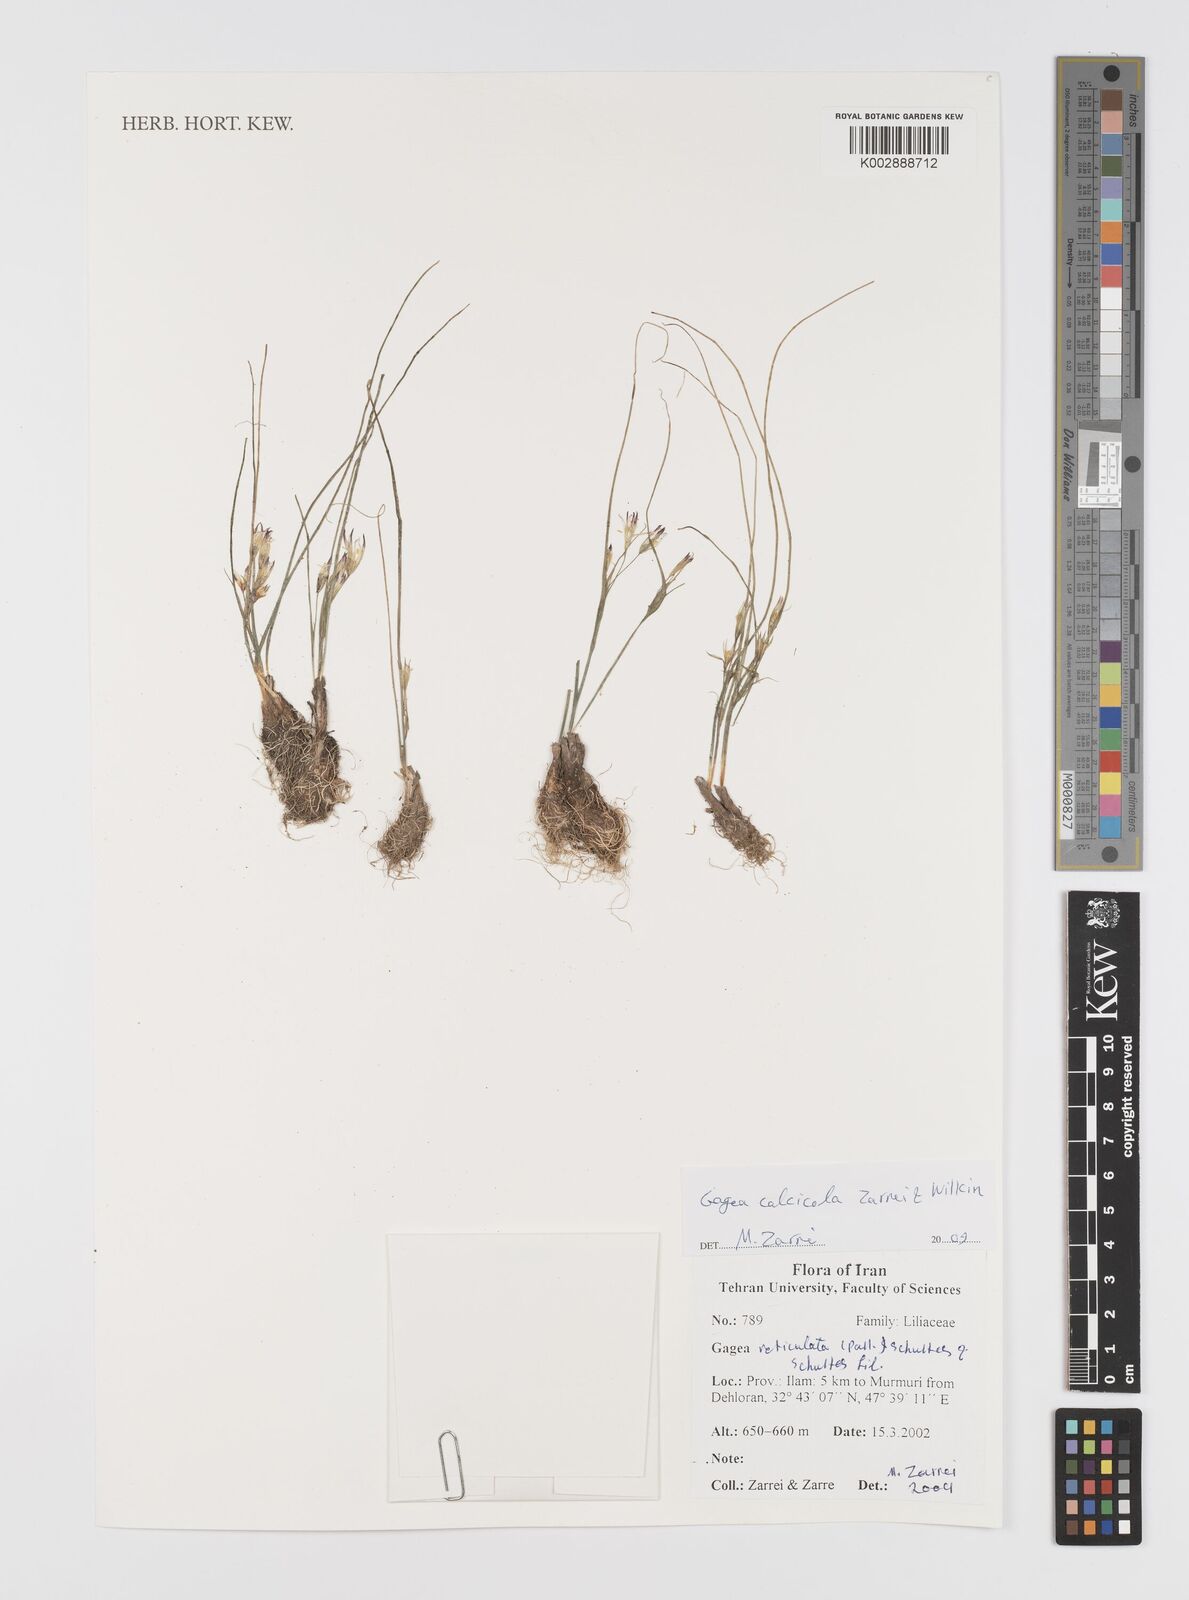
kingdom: Plantae
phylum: Tracheophyta
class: Liliopsida
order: Liliales
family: Liliaceae
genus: Gagea
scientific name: Gagea calcicola
